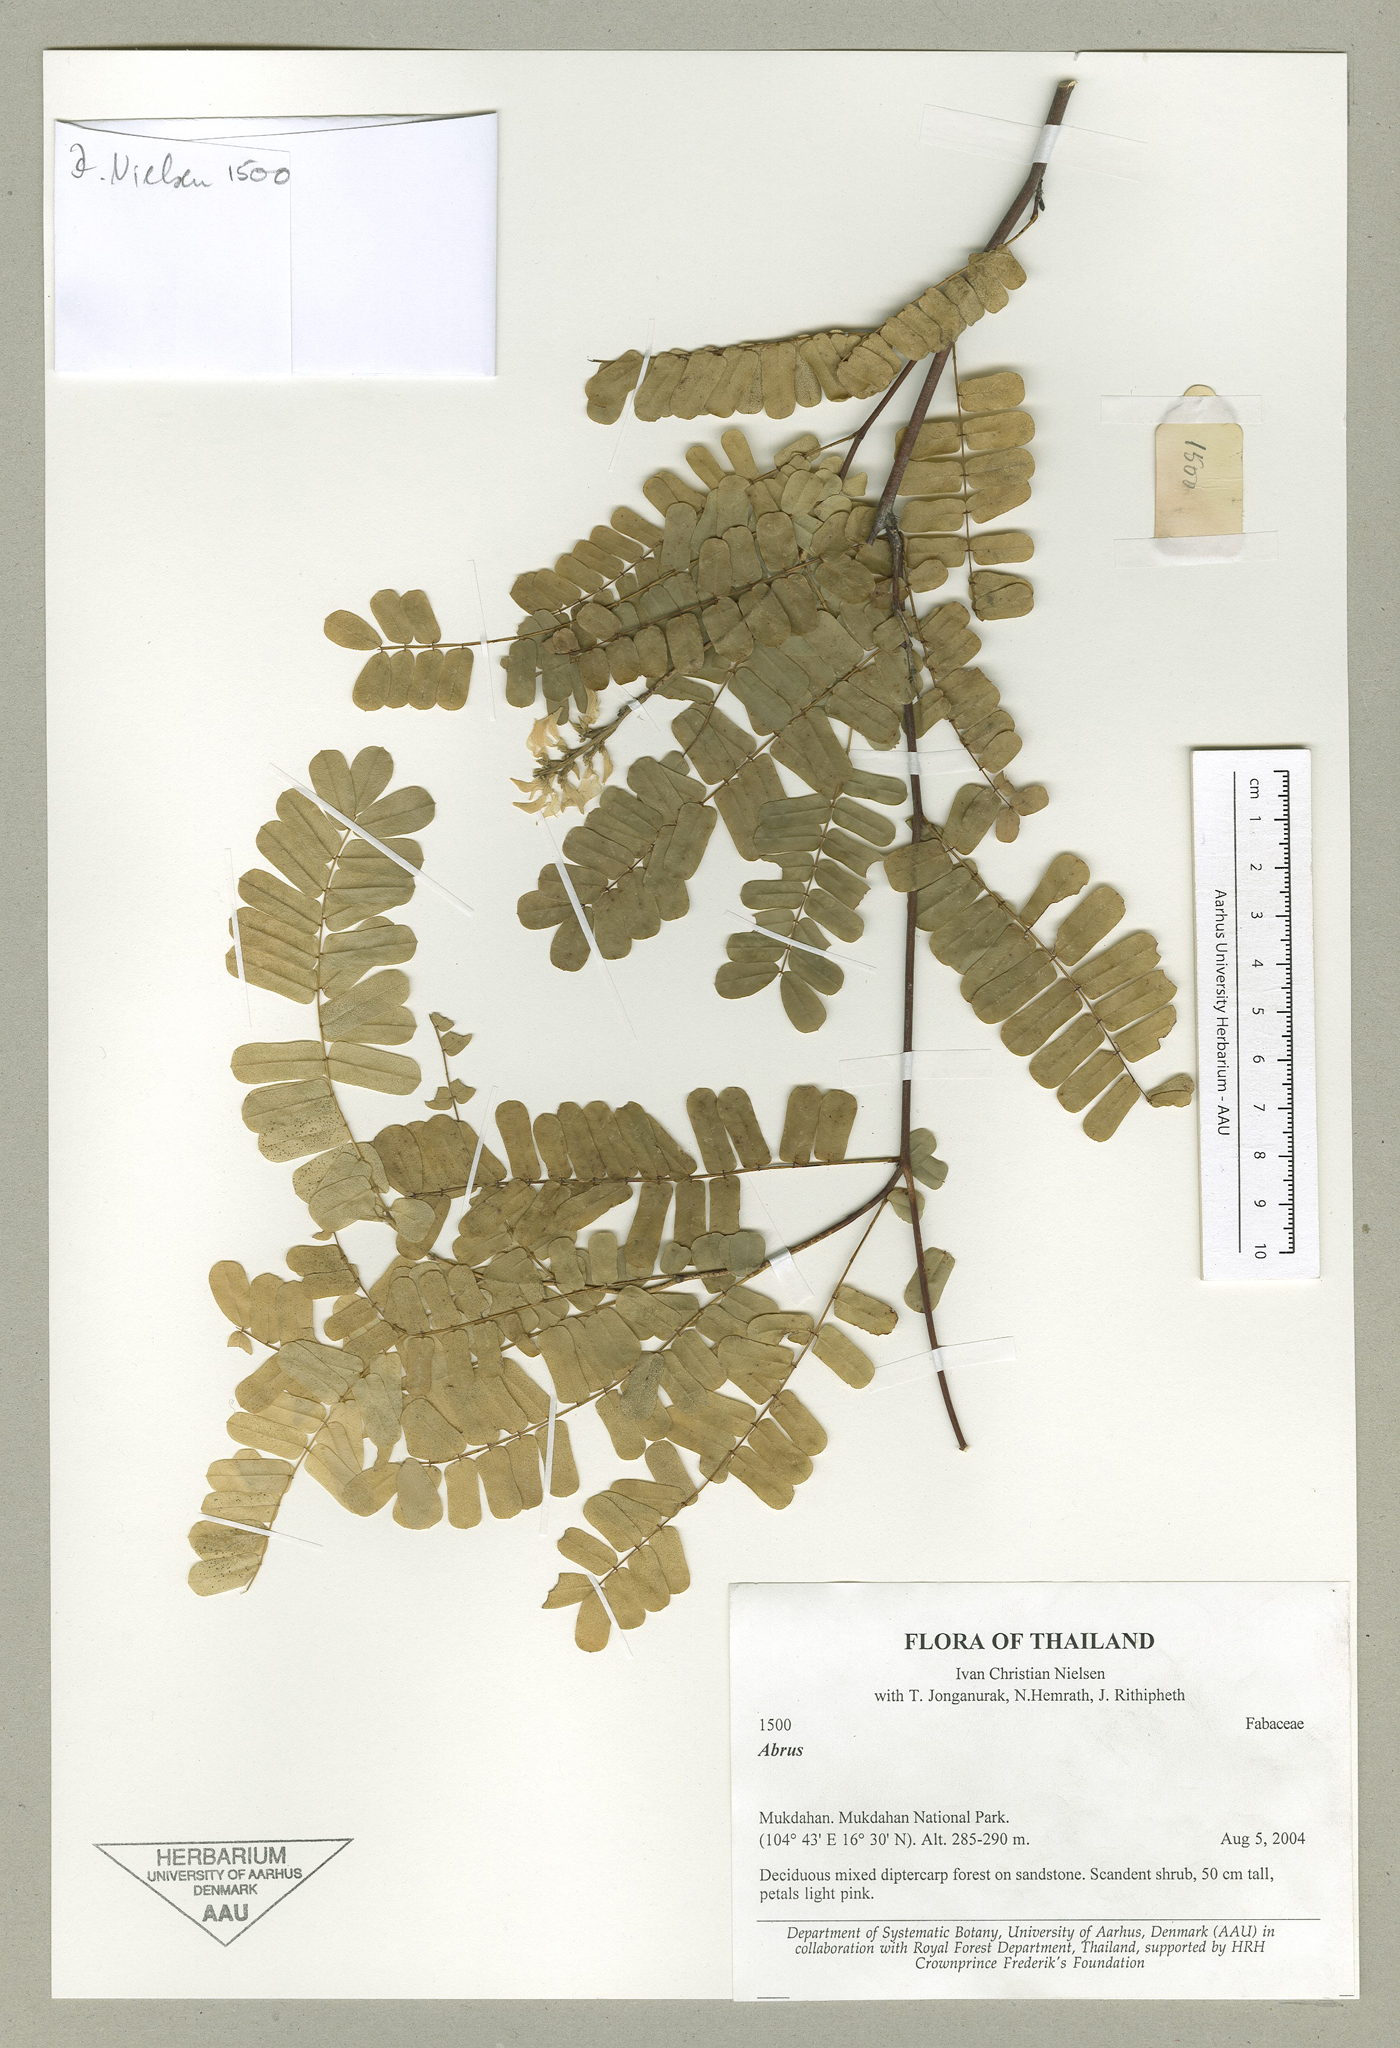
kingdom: Plantae
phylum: Tracheophyta
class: Magnoliopsida
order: Fabales
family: Fabaceae
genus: Abrus
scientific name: Abrus
